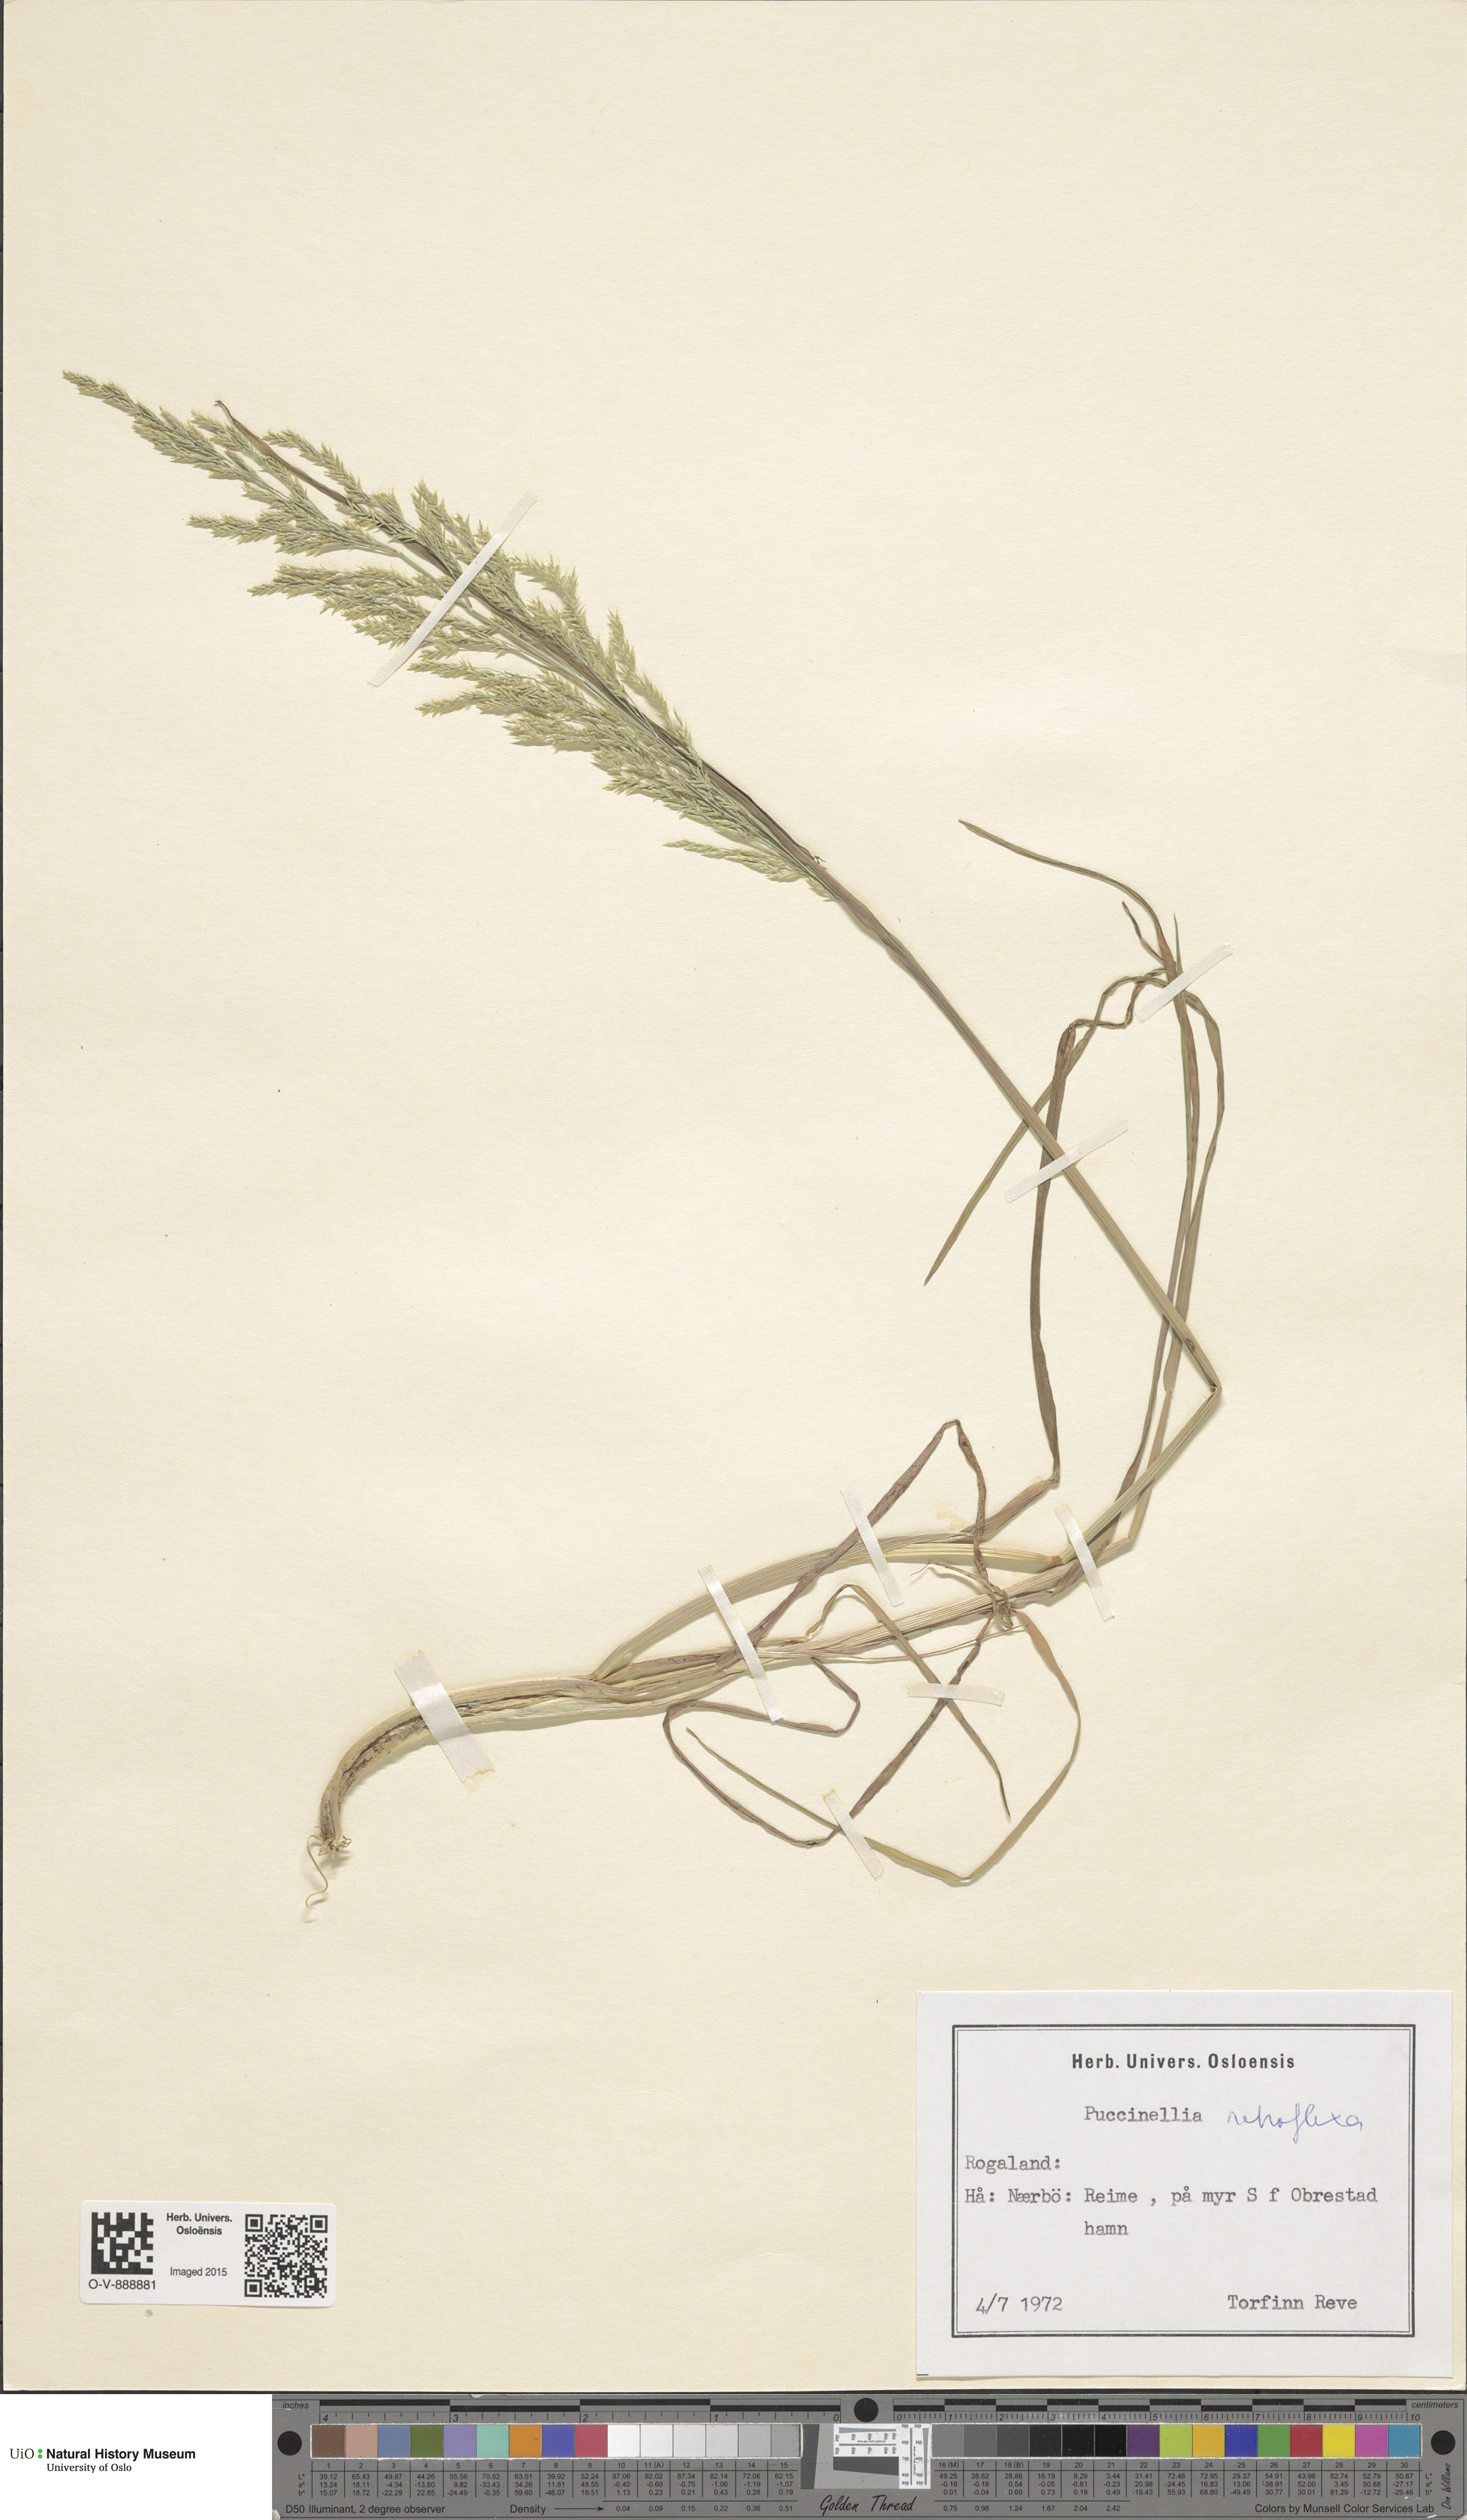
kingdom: Plantae
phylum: Tracheophyta
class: Liliopsida
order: Poales
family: Poaceae
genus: Puccinellia
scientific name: Puccinellia distans
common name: Weeping alkaligrass
